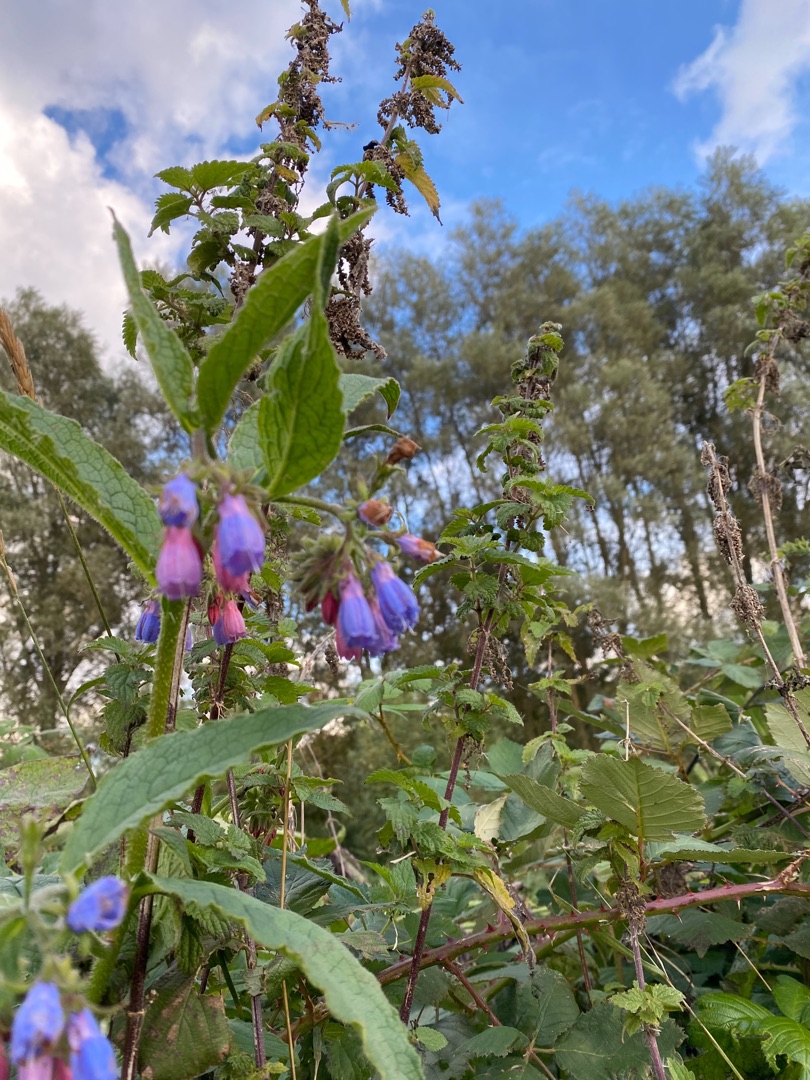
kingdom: Plantae
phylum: Tracheophyta
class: Magnoliopsida
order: Boraginales
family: Boraginaceae
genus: Symphytum
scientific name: Symphytum uplandicum
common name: Foder-kulsukker
